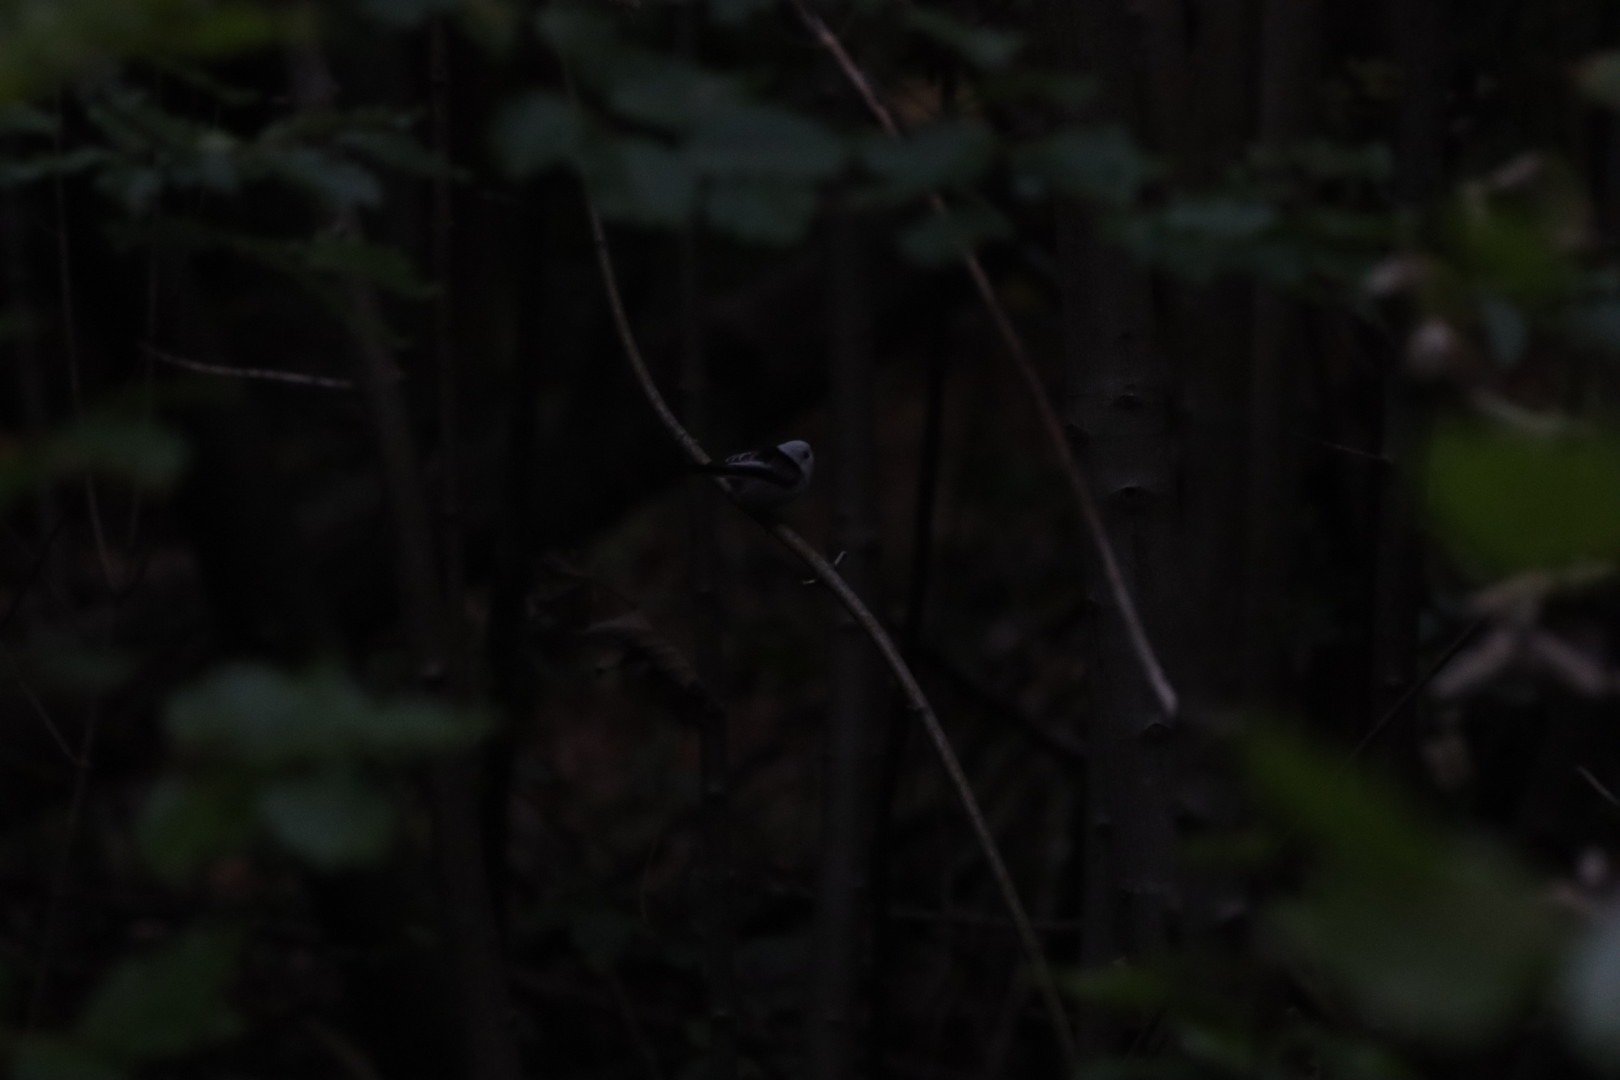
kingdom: Animalia
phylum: Chordata
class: Aves
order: Passeriformes
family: Aegithalidae
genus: Aegithalos
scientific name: Aegithalos caudatus
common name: Halemejse
